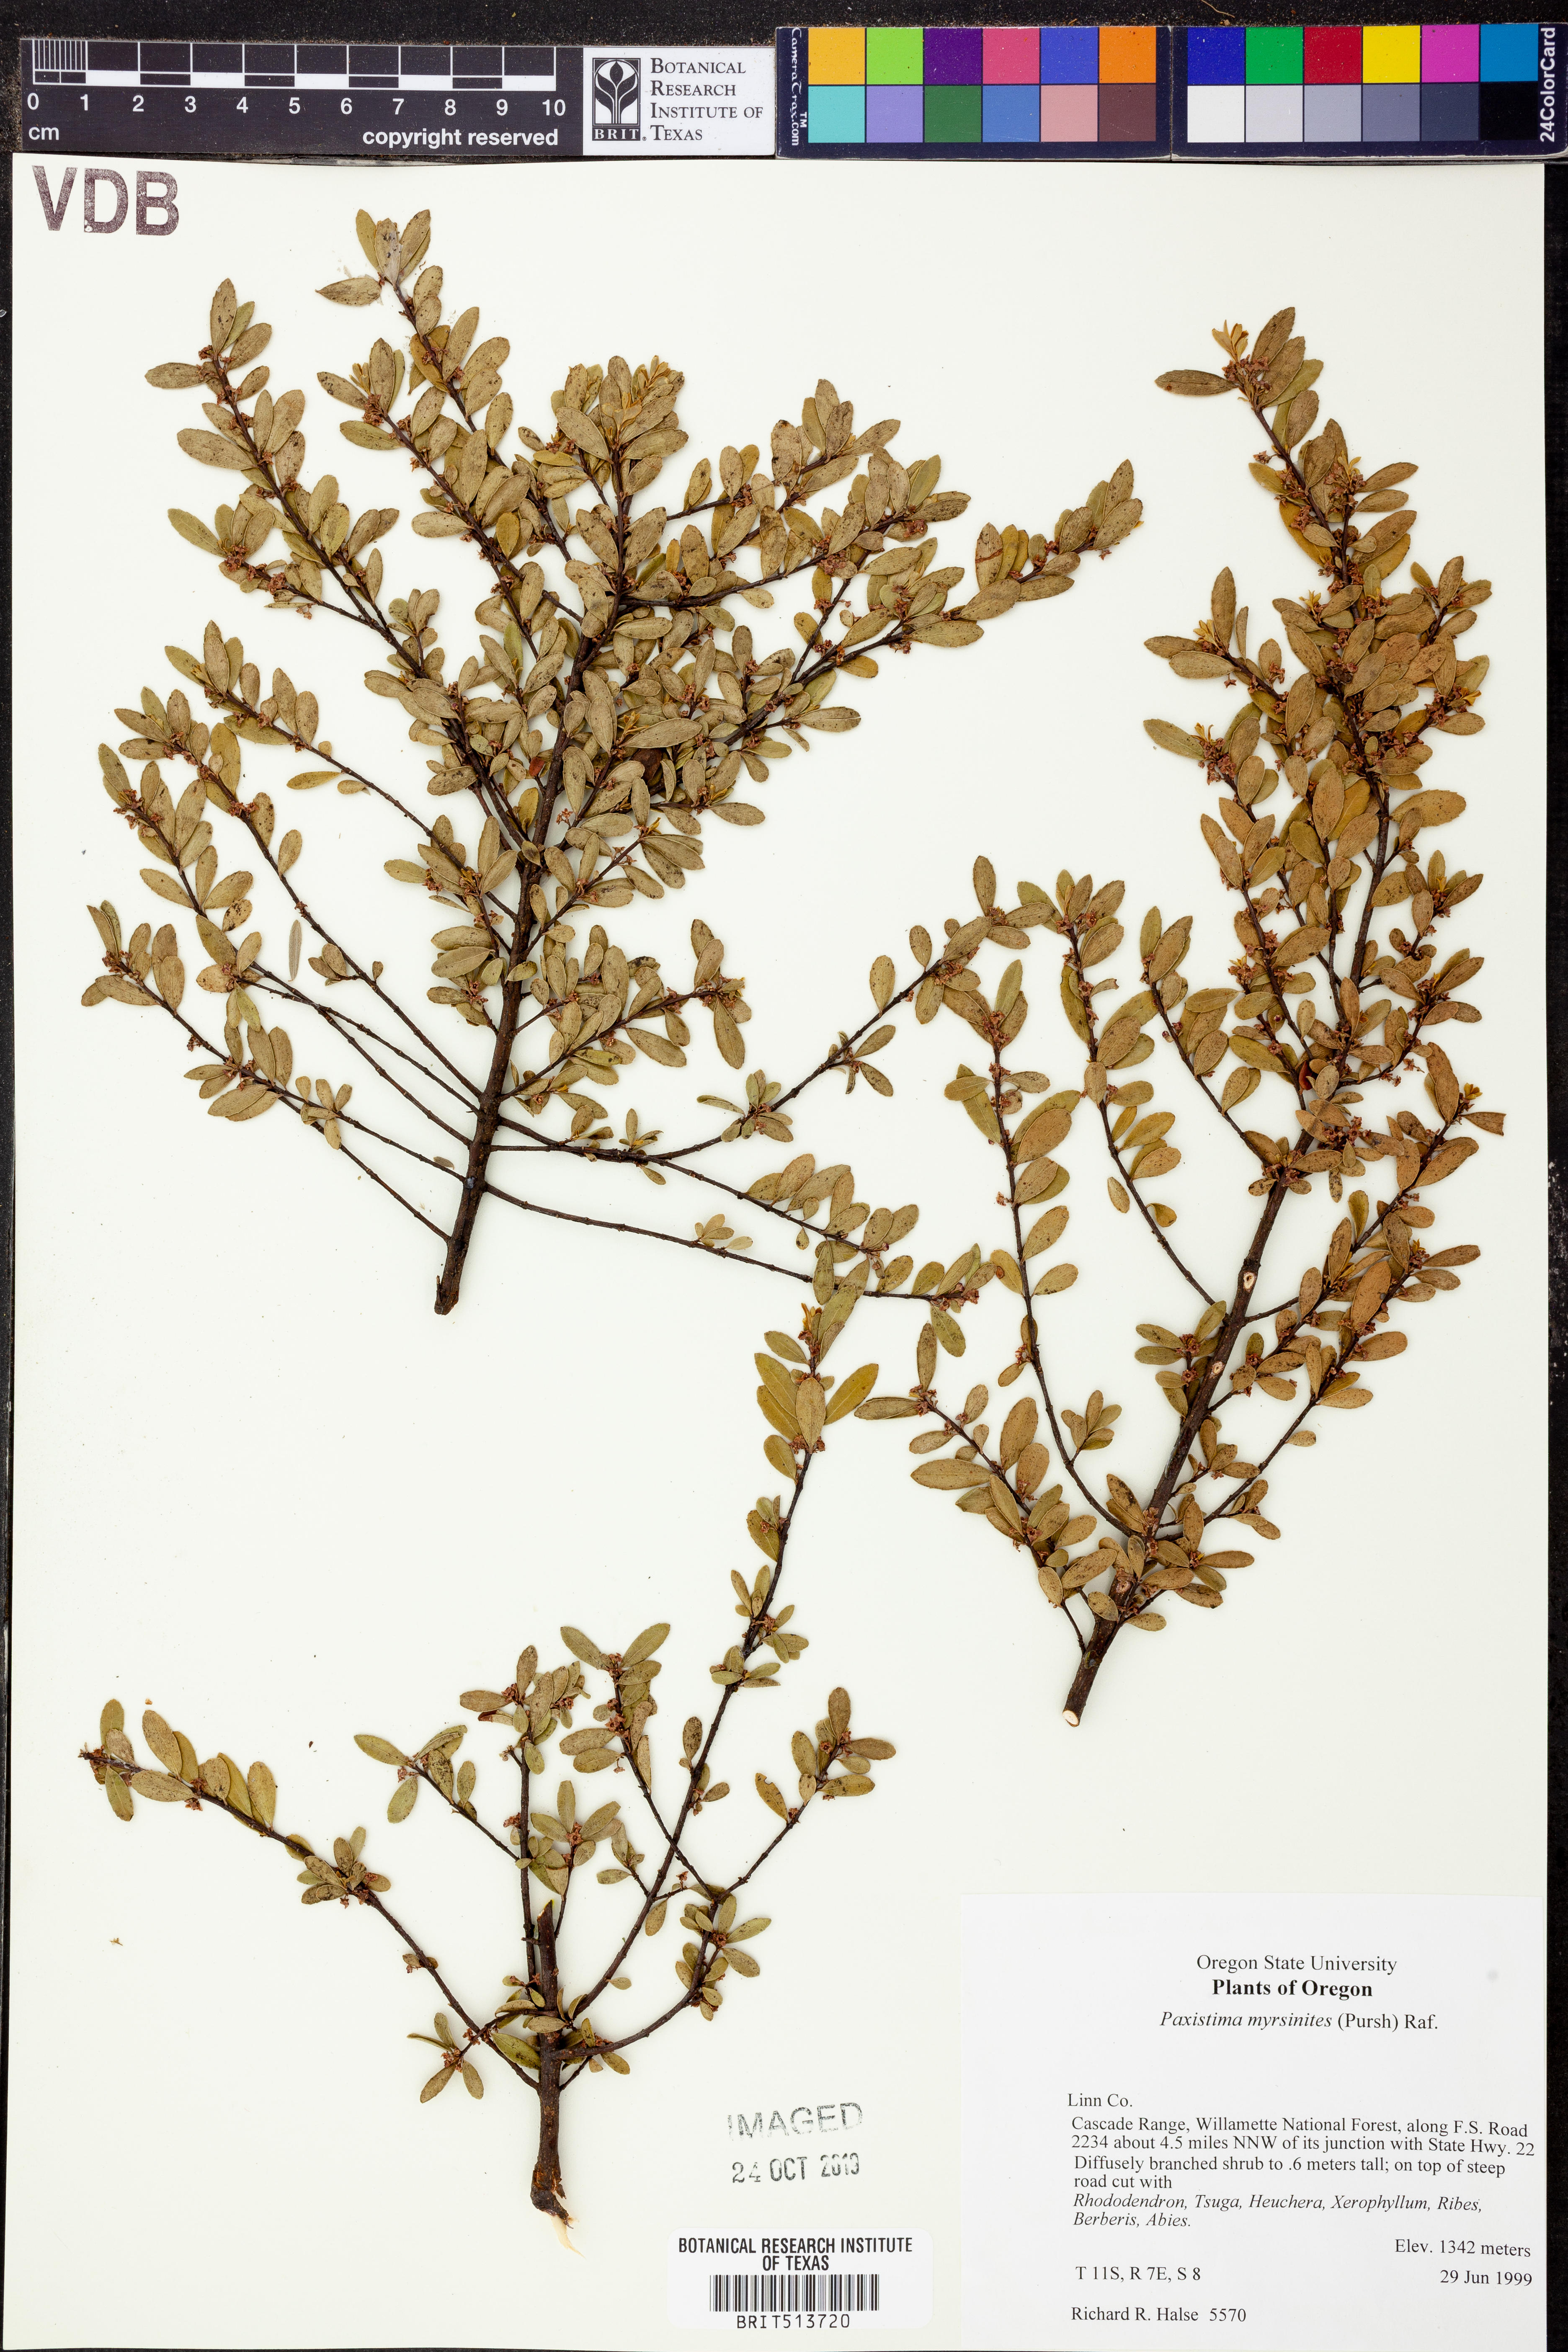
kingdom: Plantae
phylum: Tracheophyta
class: Magnoliopsida
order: Celastrales
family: Celastraceae
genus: Paxistima
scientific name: Paxistima myrsinites
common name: Mountain-lover
